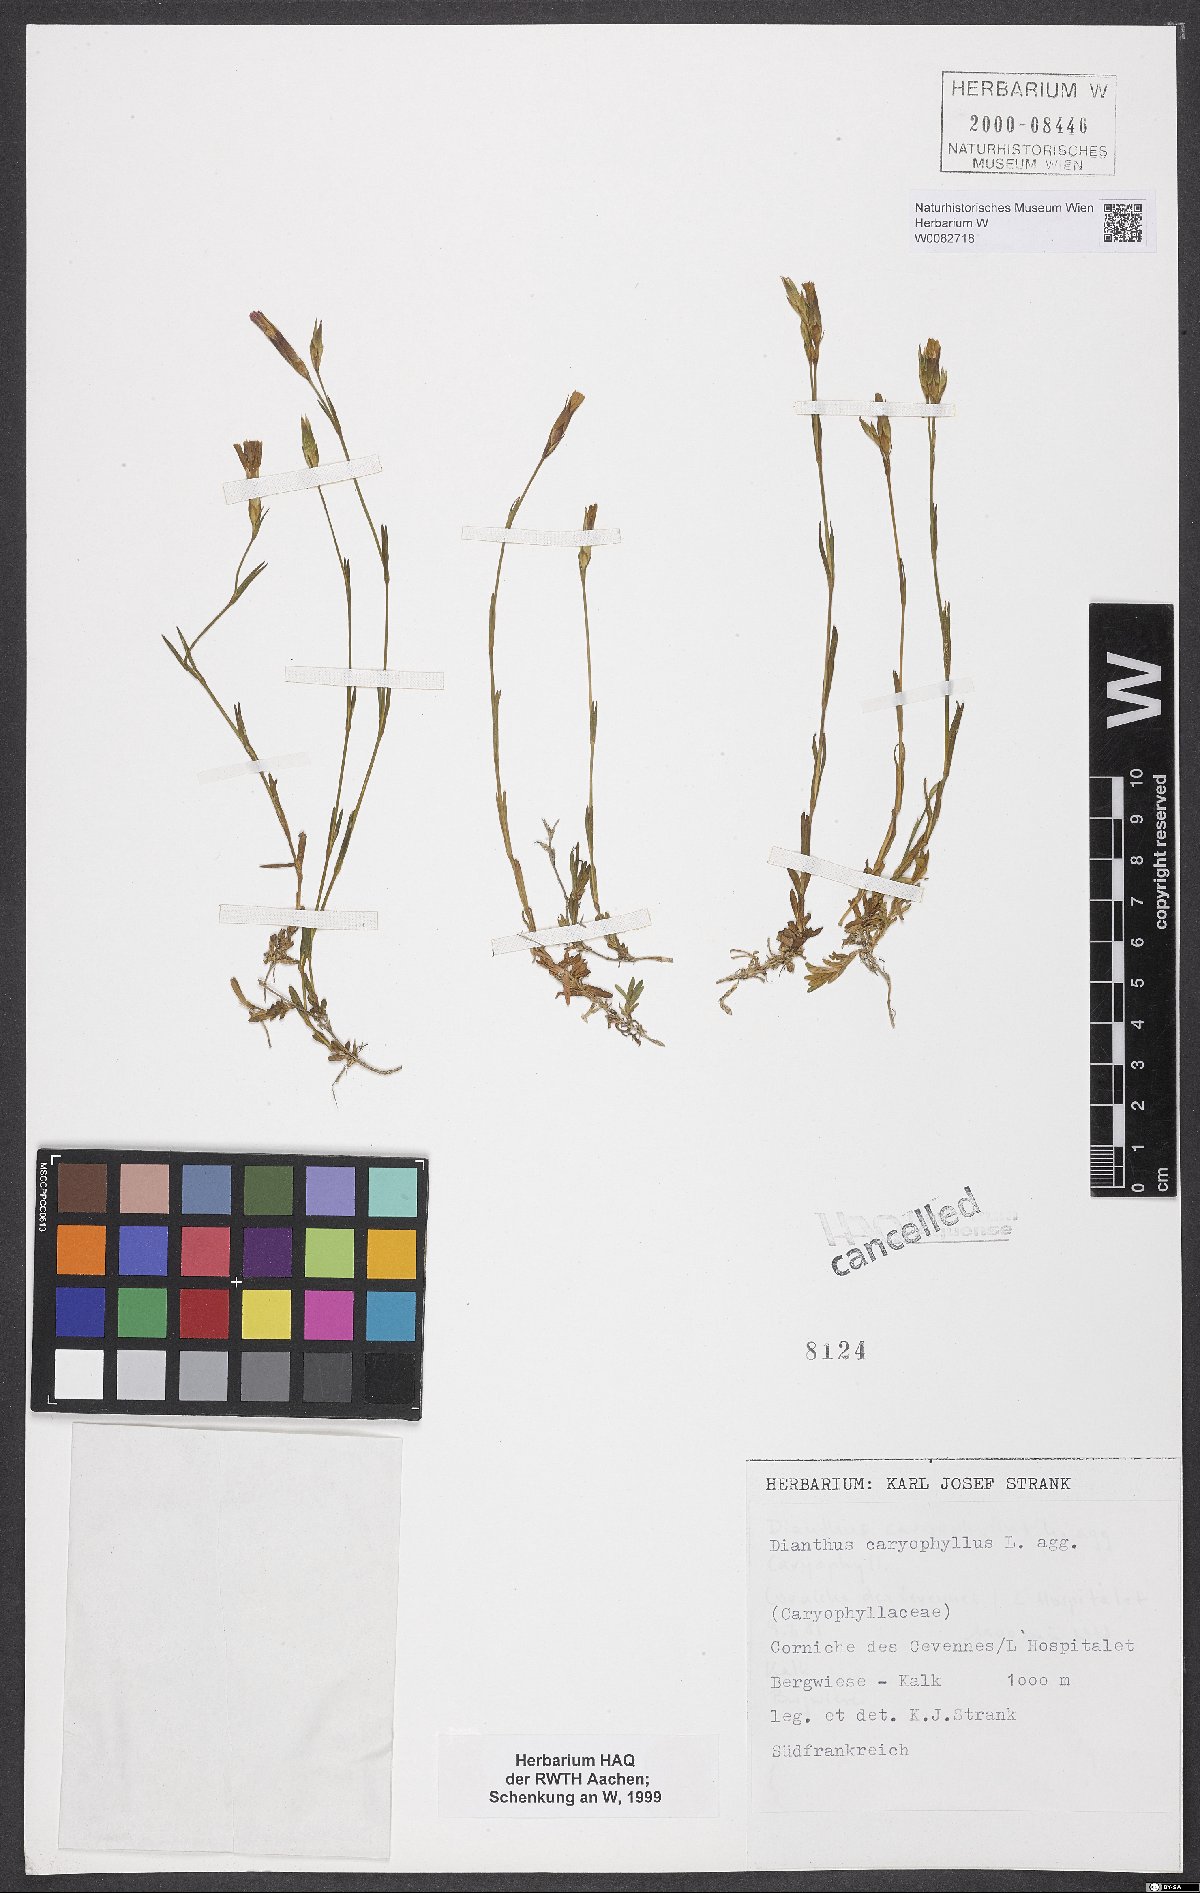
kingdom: Plantae
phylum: Tracheophyta
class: Magnoliopsida
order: Caryophyllales
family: Caryophyllaceae
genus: Dianthus
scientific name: Dianthus caryophyllus
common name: Clove pink
